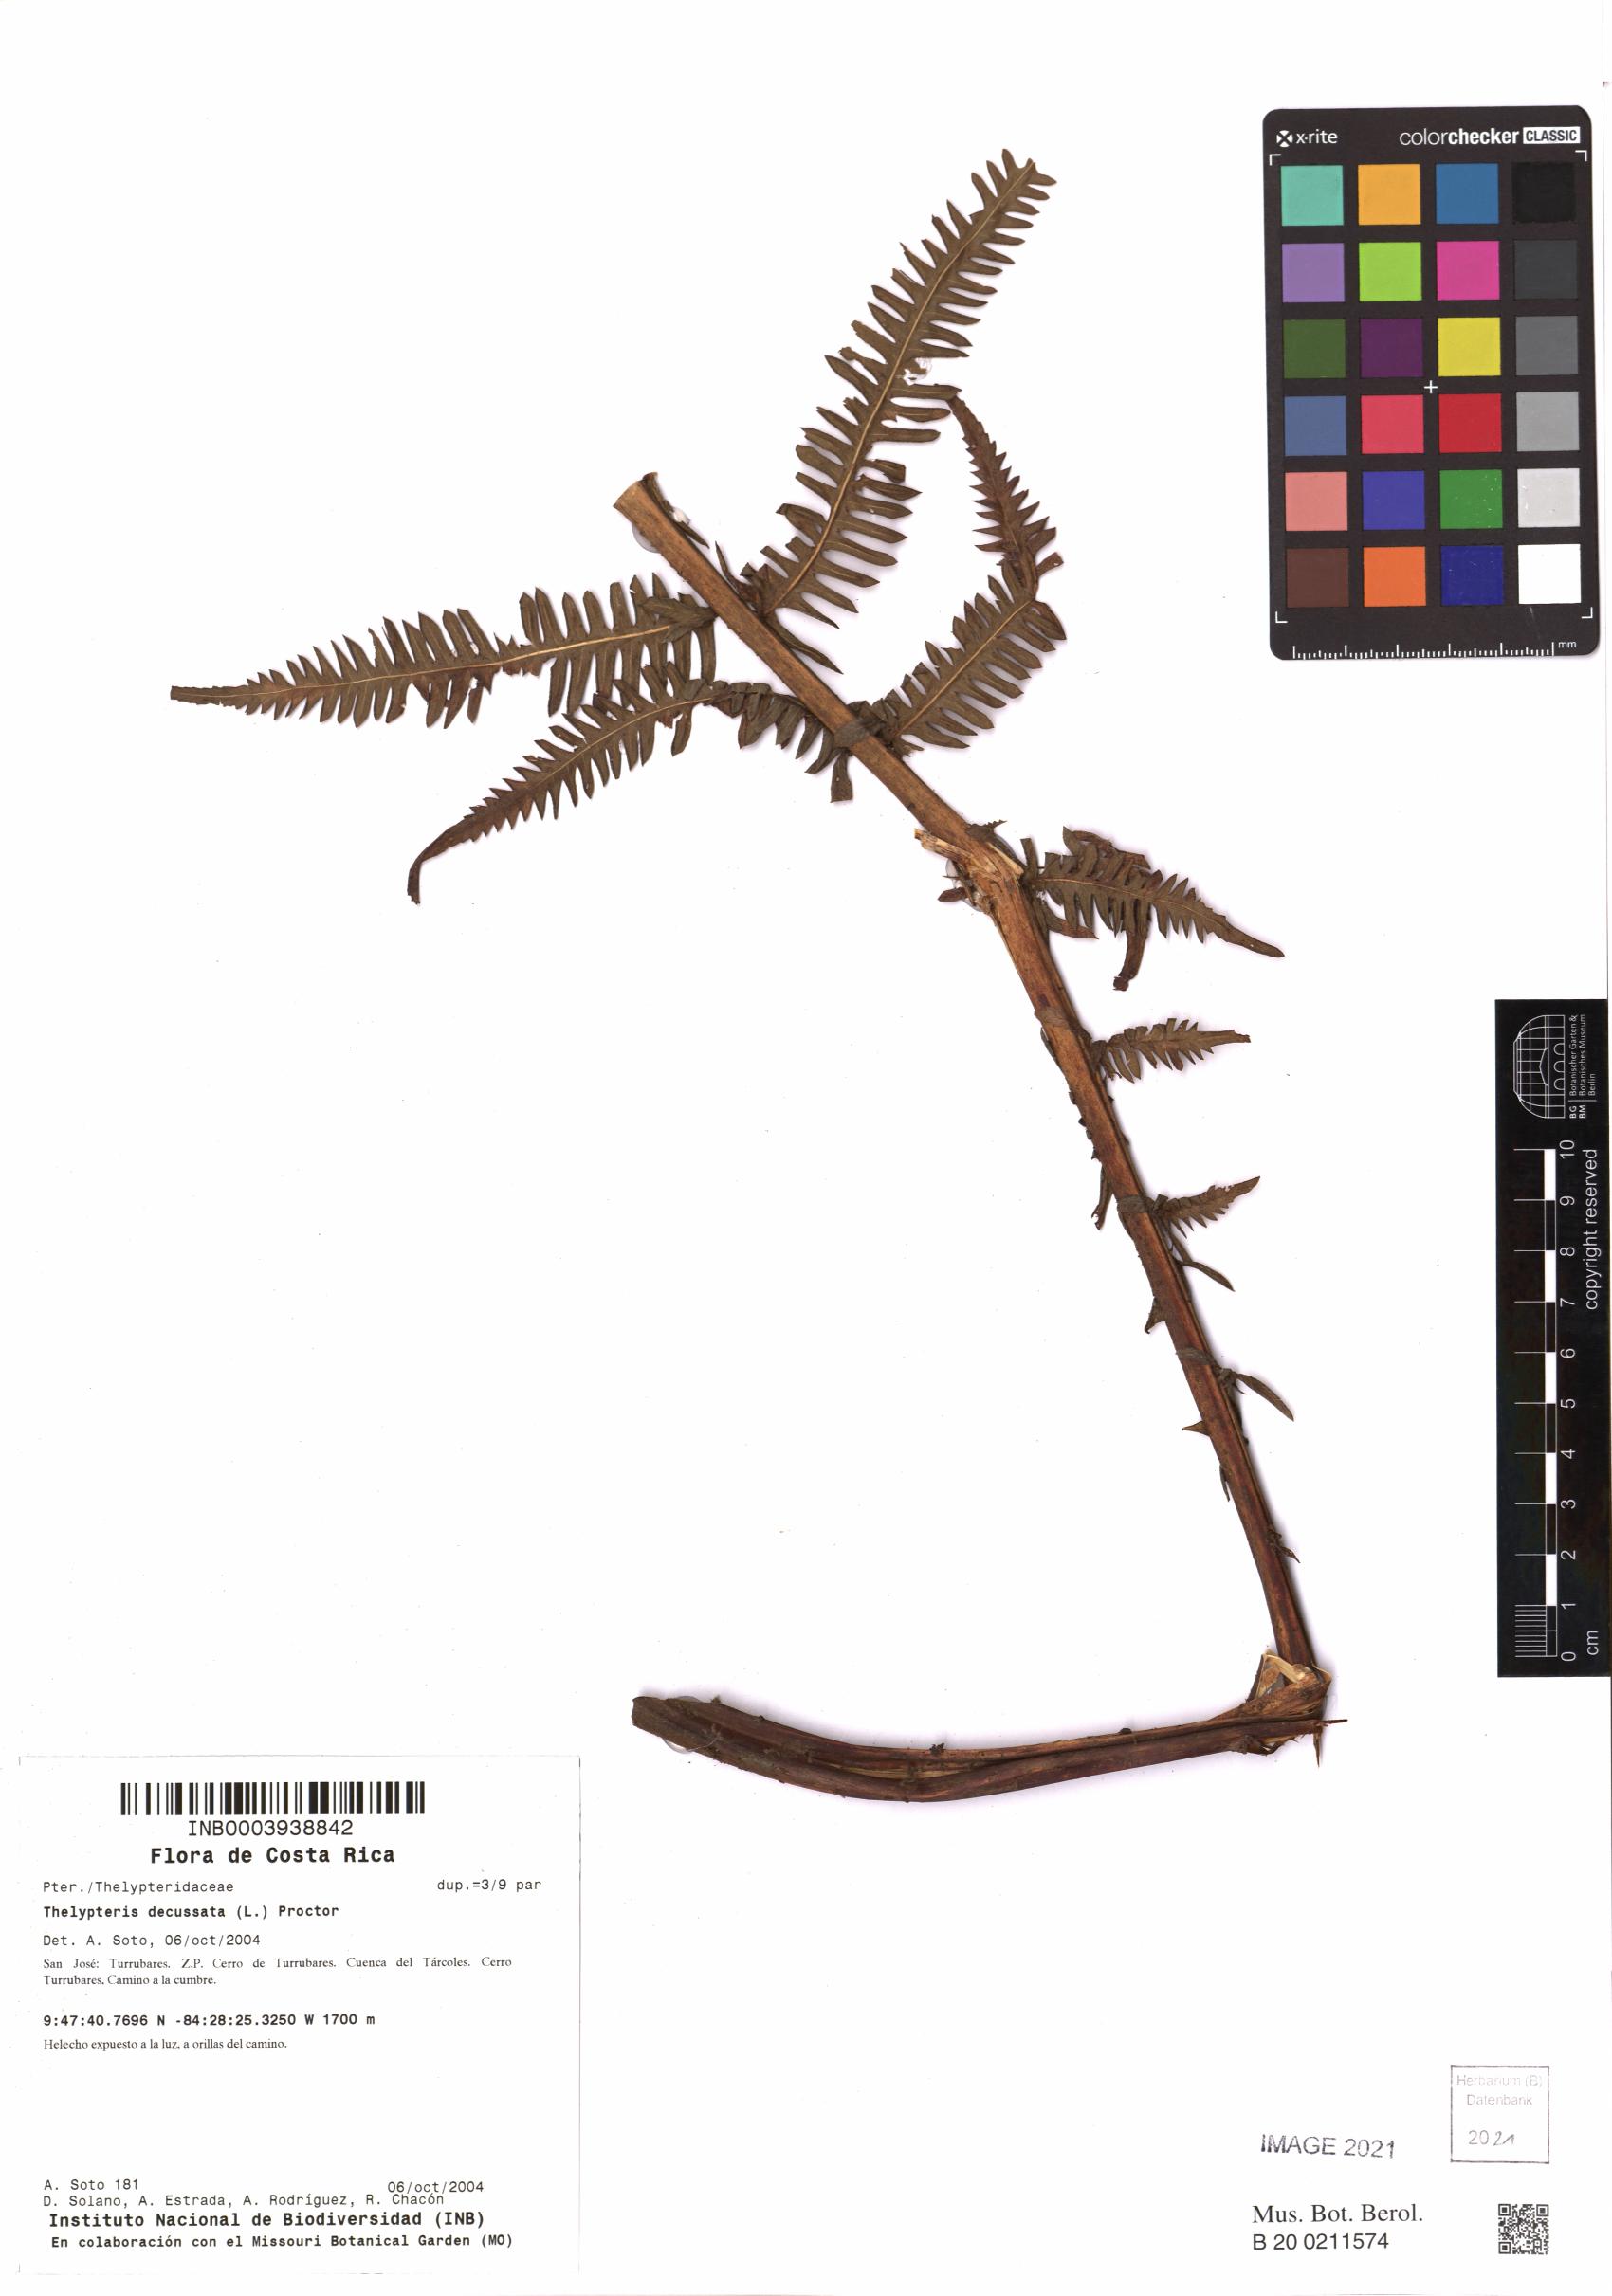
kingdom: Plantae
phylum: Tracheophyta
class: Polypodiopsida
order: Polypodiales
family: Thelypteridaceae
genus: Steiropteris
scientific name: Steiropteris decussata
